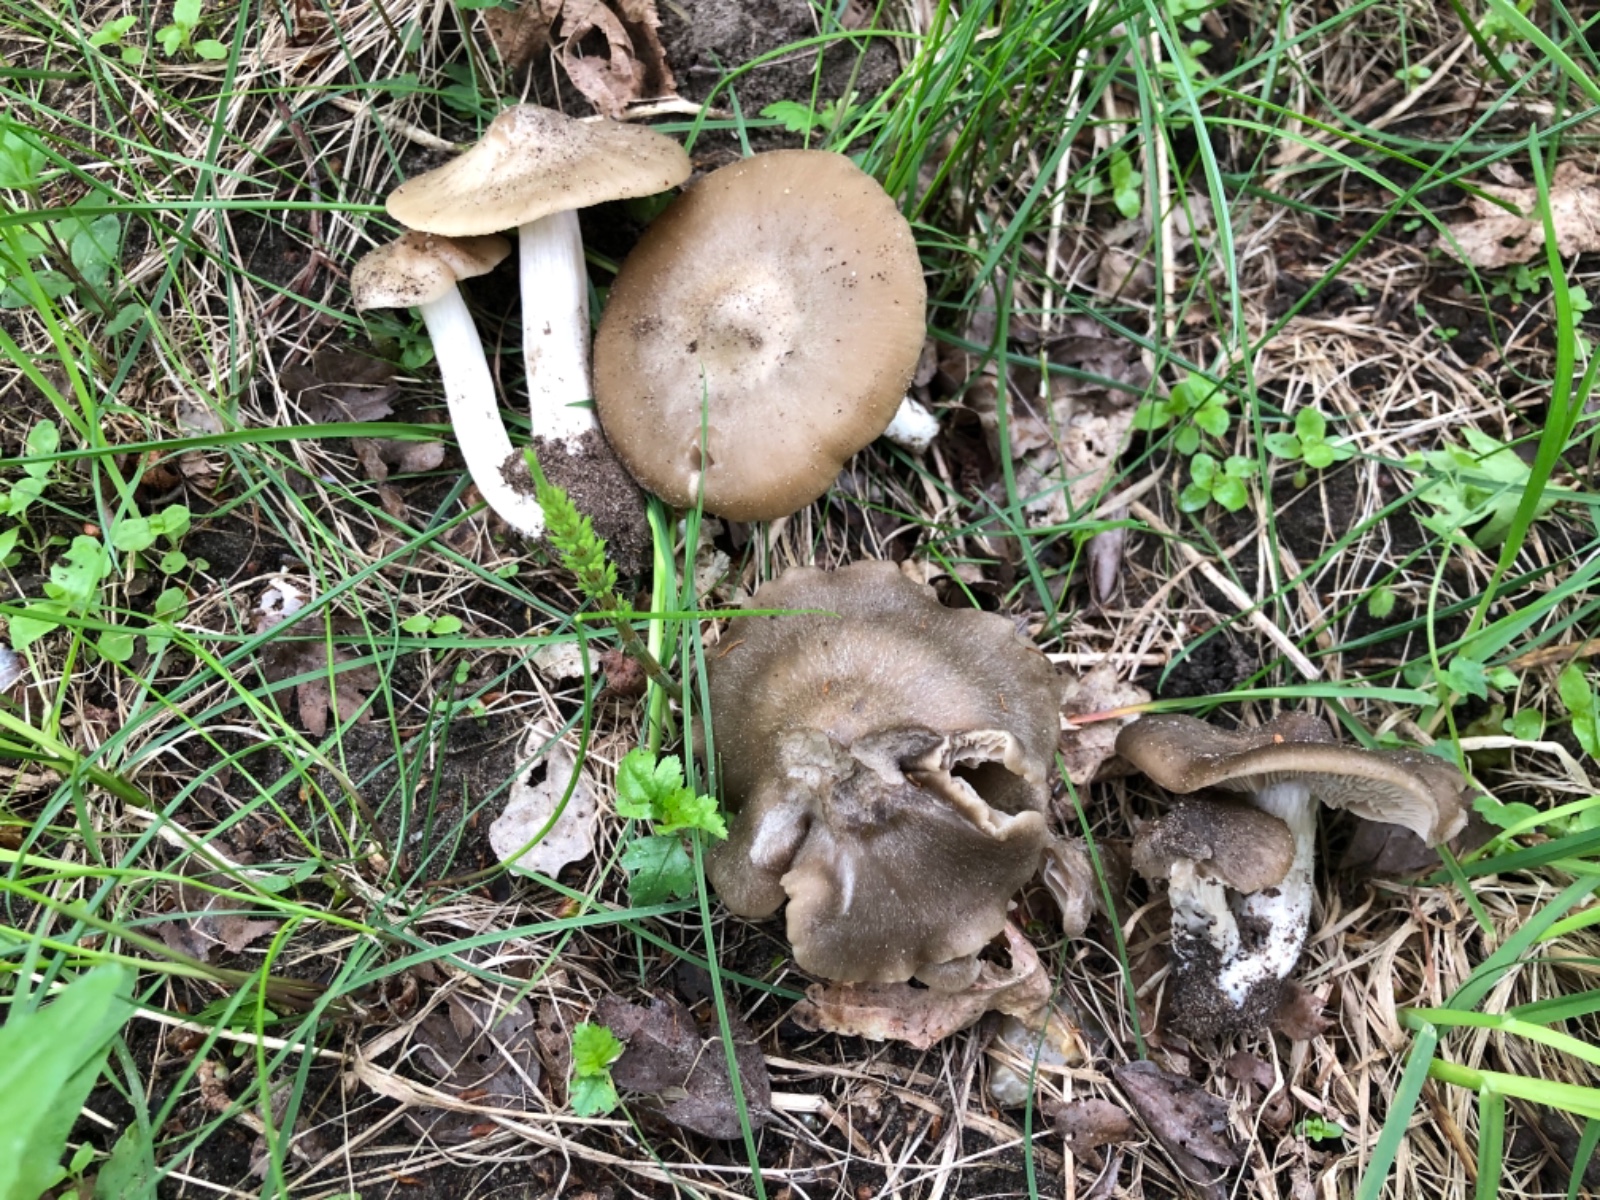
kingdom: Fungi
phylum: Basidiomycota
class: Agaricomycetes
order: Agaricales
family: Entolomataceae
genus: Entoloma
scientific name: Entoloma clypeatum
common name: Shield pinkgill
